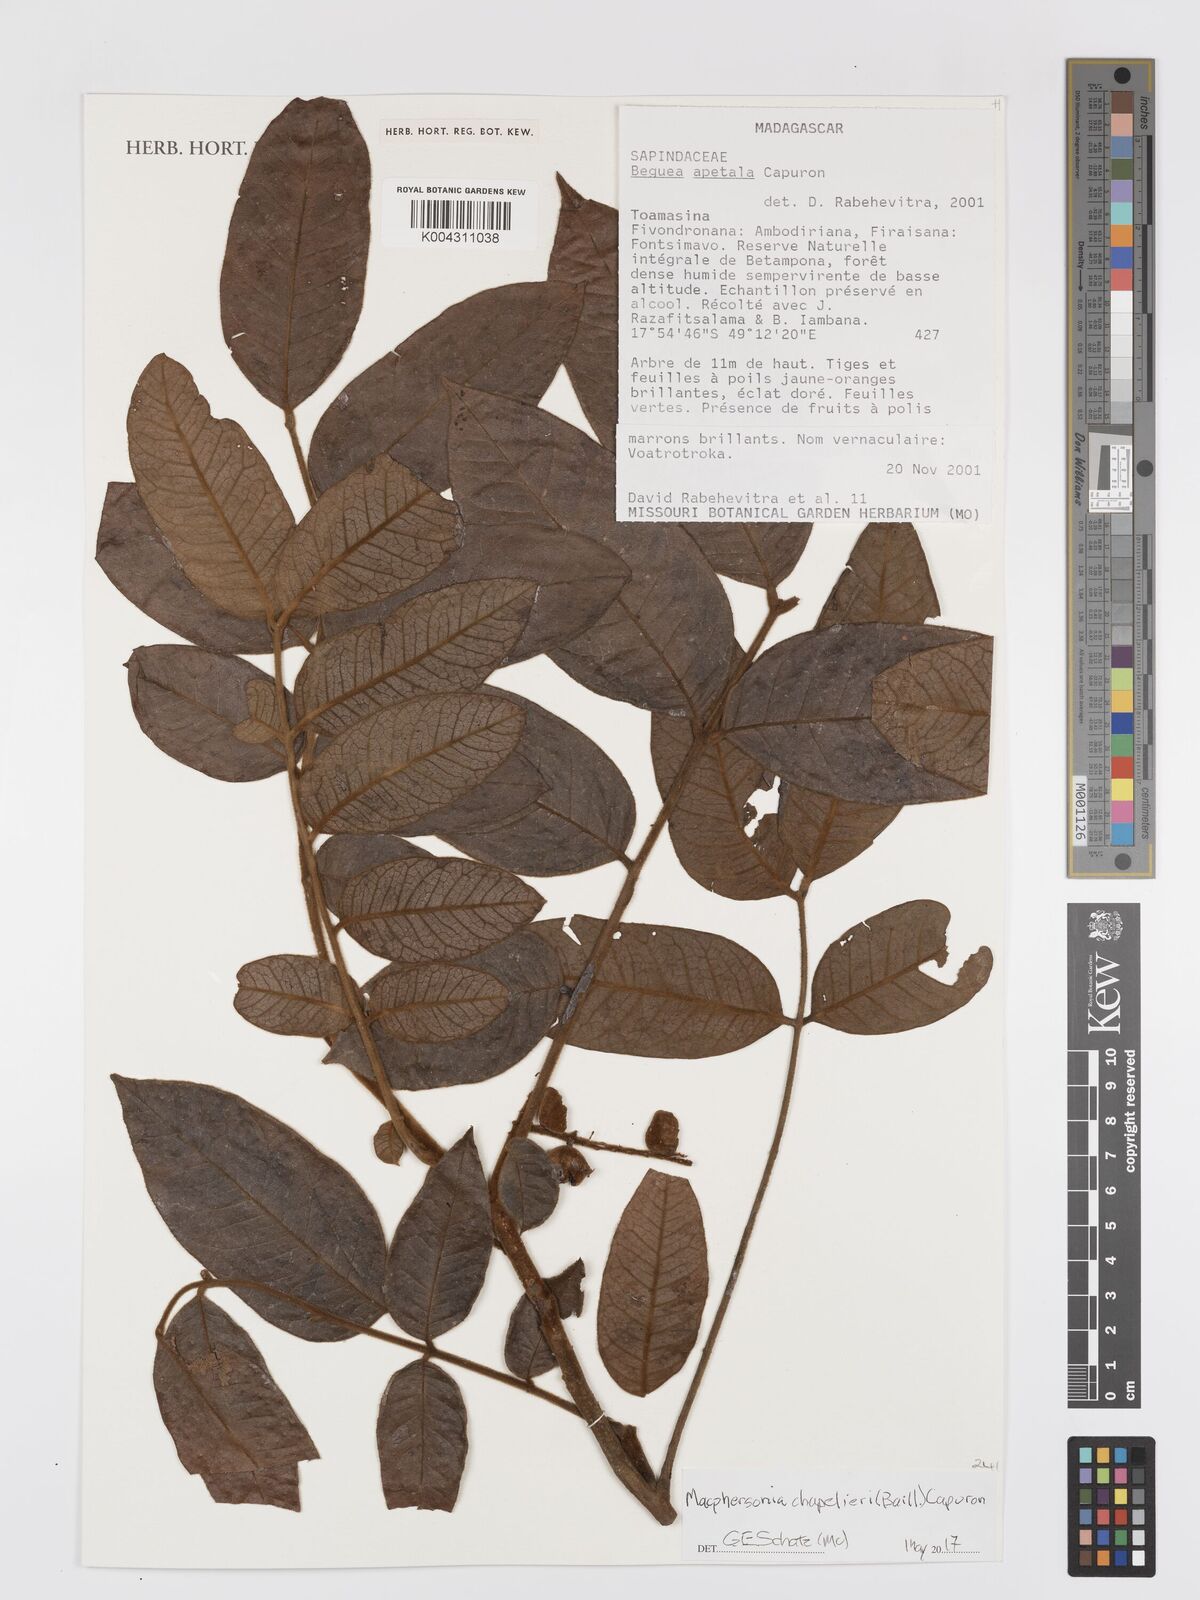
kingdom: Plantae
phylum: Tracheophyta
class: Magnoliopsida
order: Sapindales
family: Sapindaceae
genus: Macphersonia
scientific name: Macphersonia chapelieri
